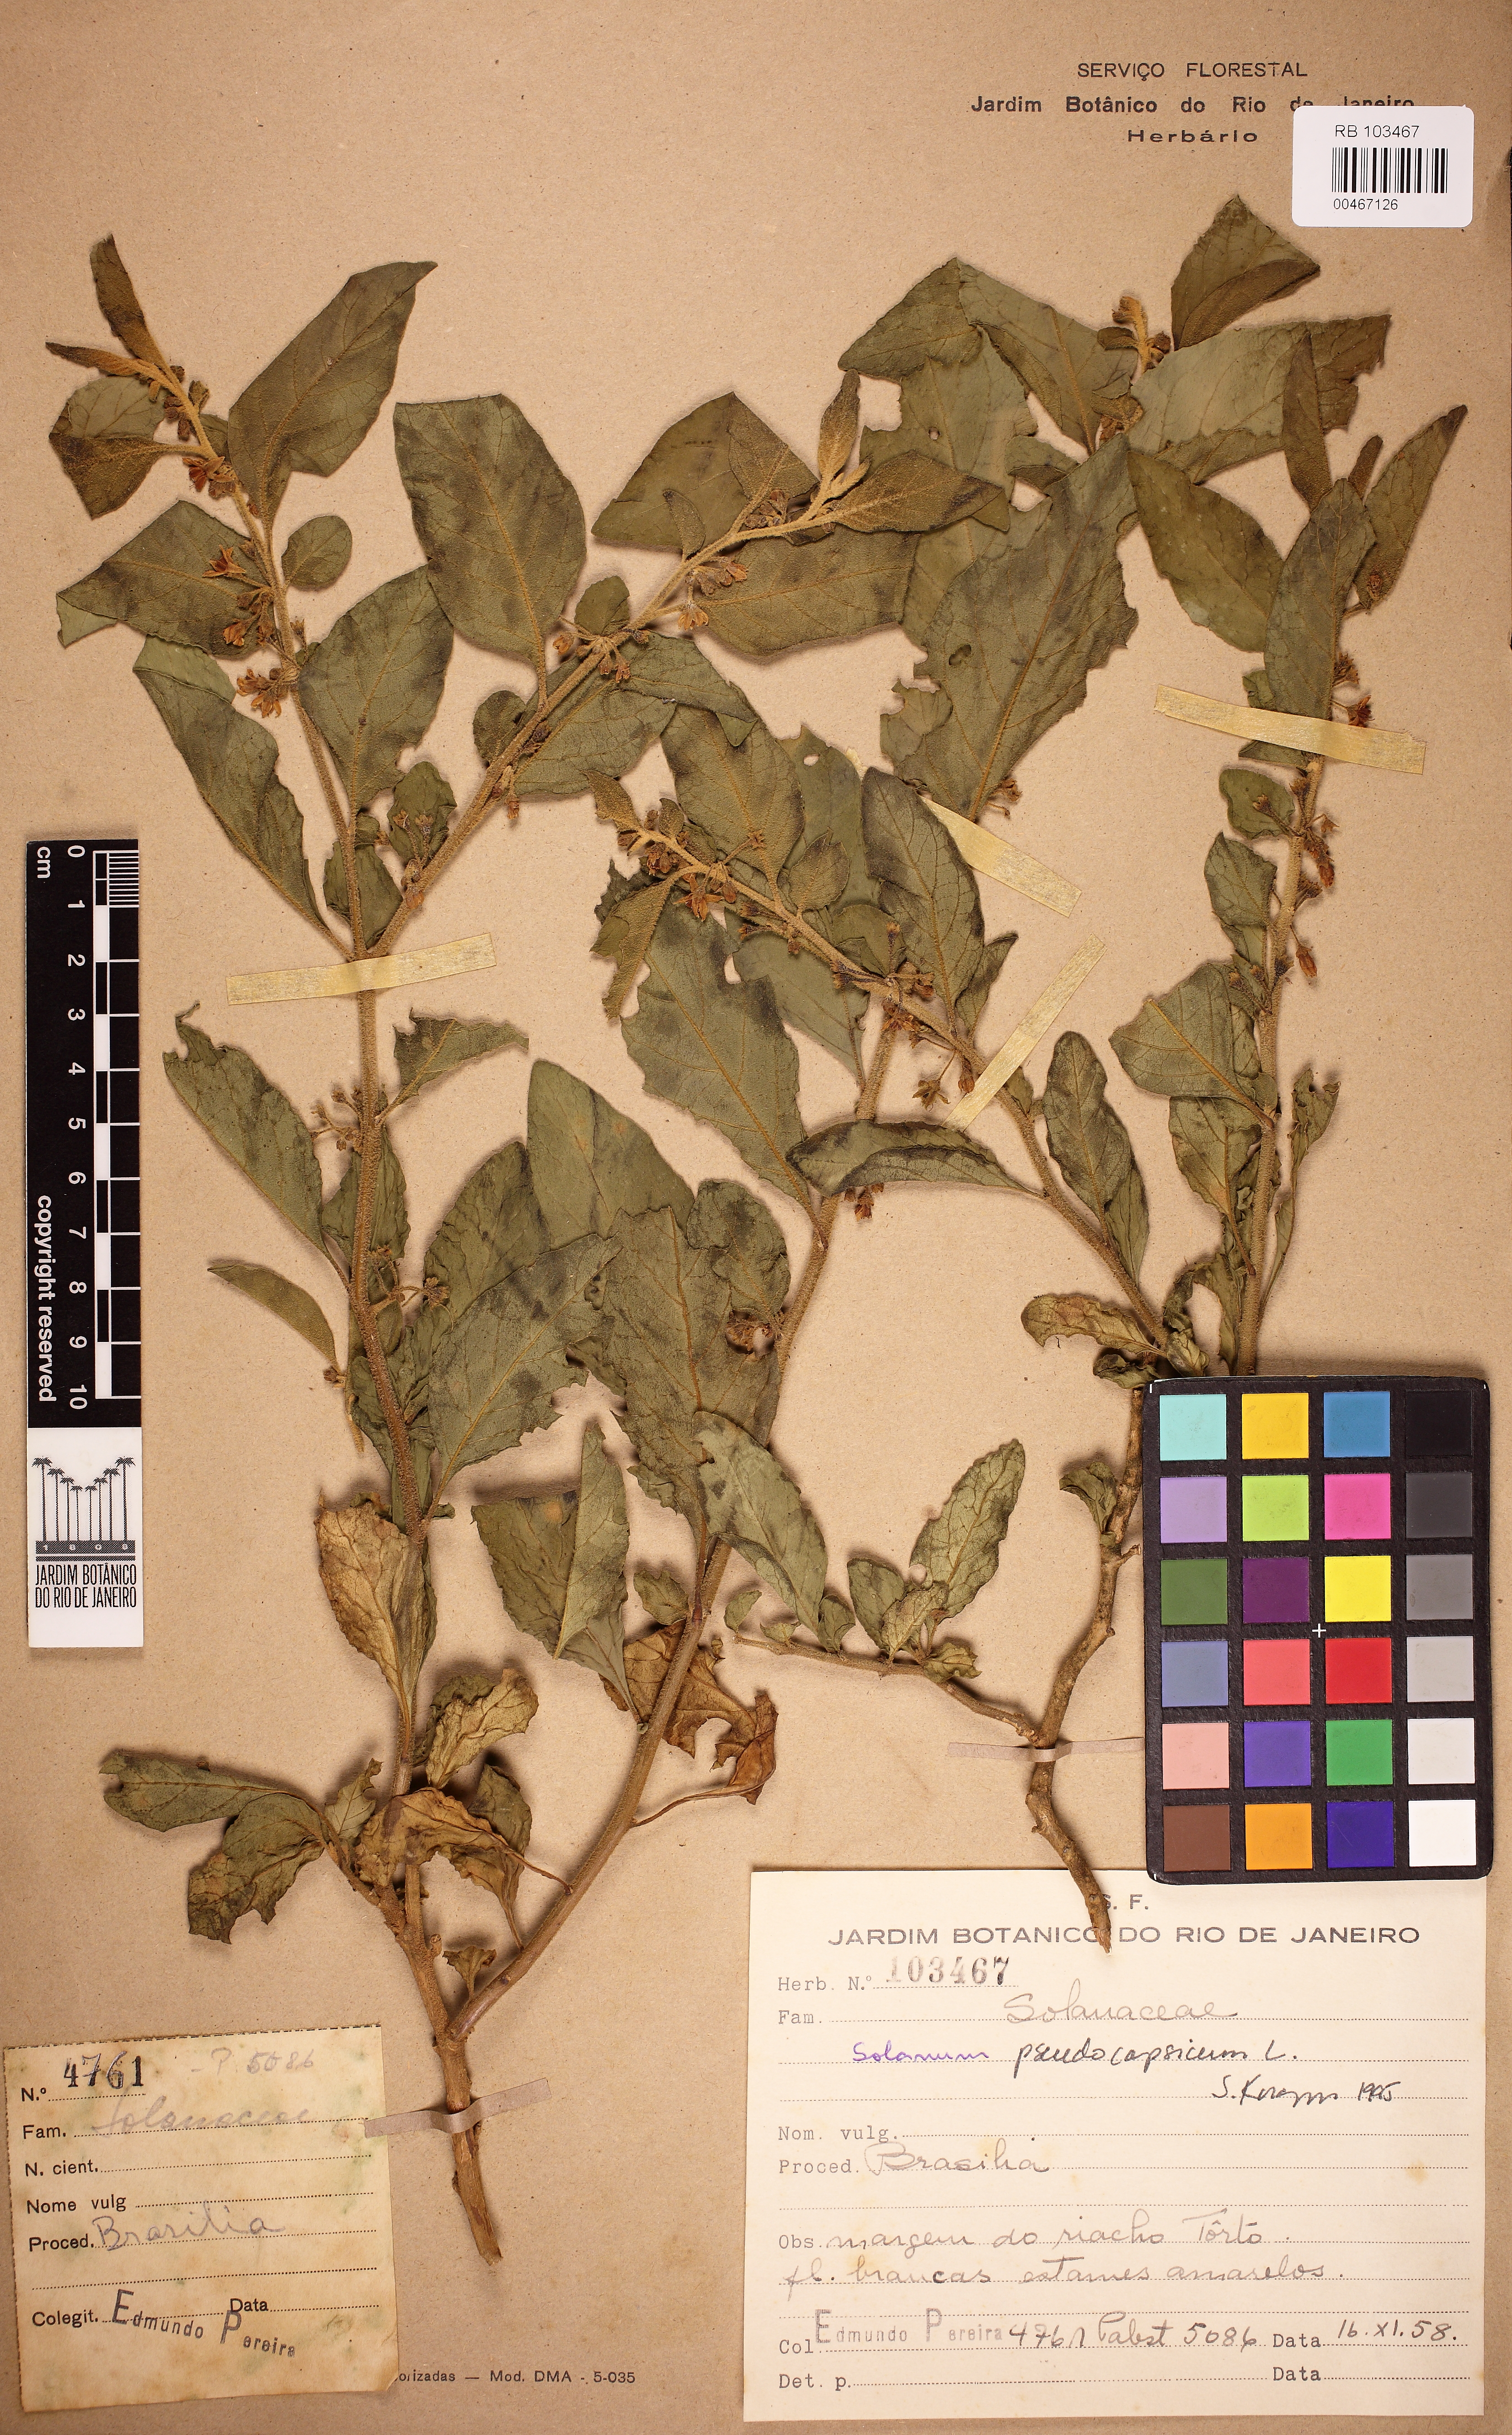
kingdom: Plantae
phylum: Tracheophyta
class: Magnoliopsida
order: Solanales
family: Solanaceae
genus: Solanum
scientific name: Solanum pseudocapsicum
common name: Jerusalem cherry
